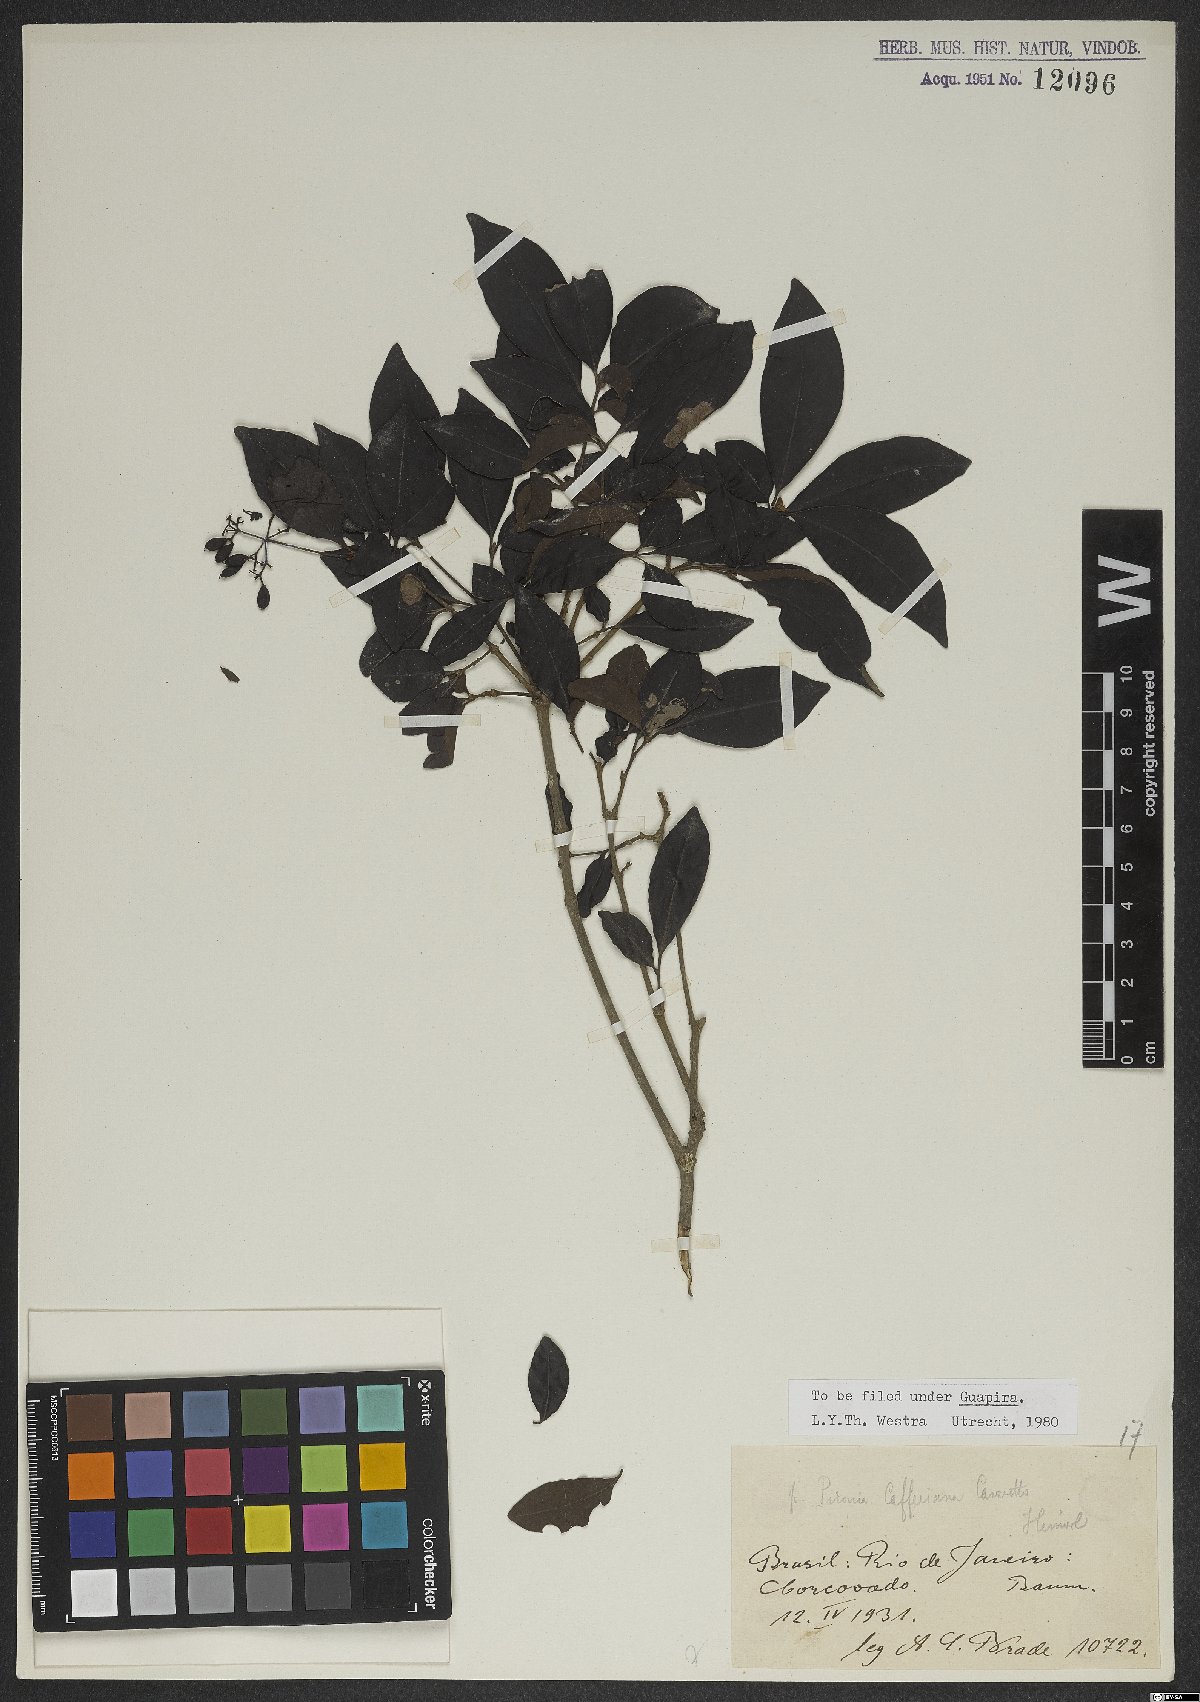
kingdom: Plantae
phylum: Tracheophyta
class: Magnoliopsida
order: Caryophyllales
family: Nyctaginaceae
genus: Guapira
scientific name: Guapira opposita
